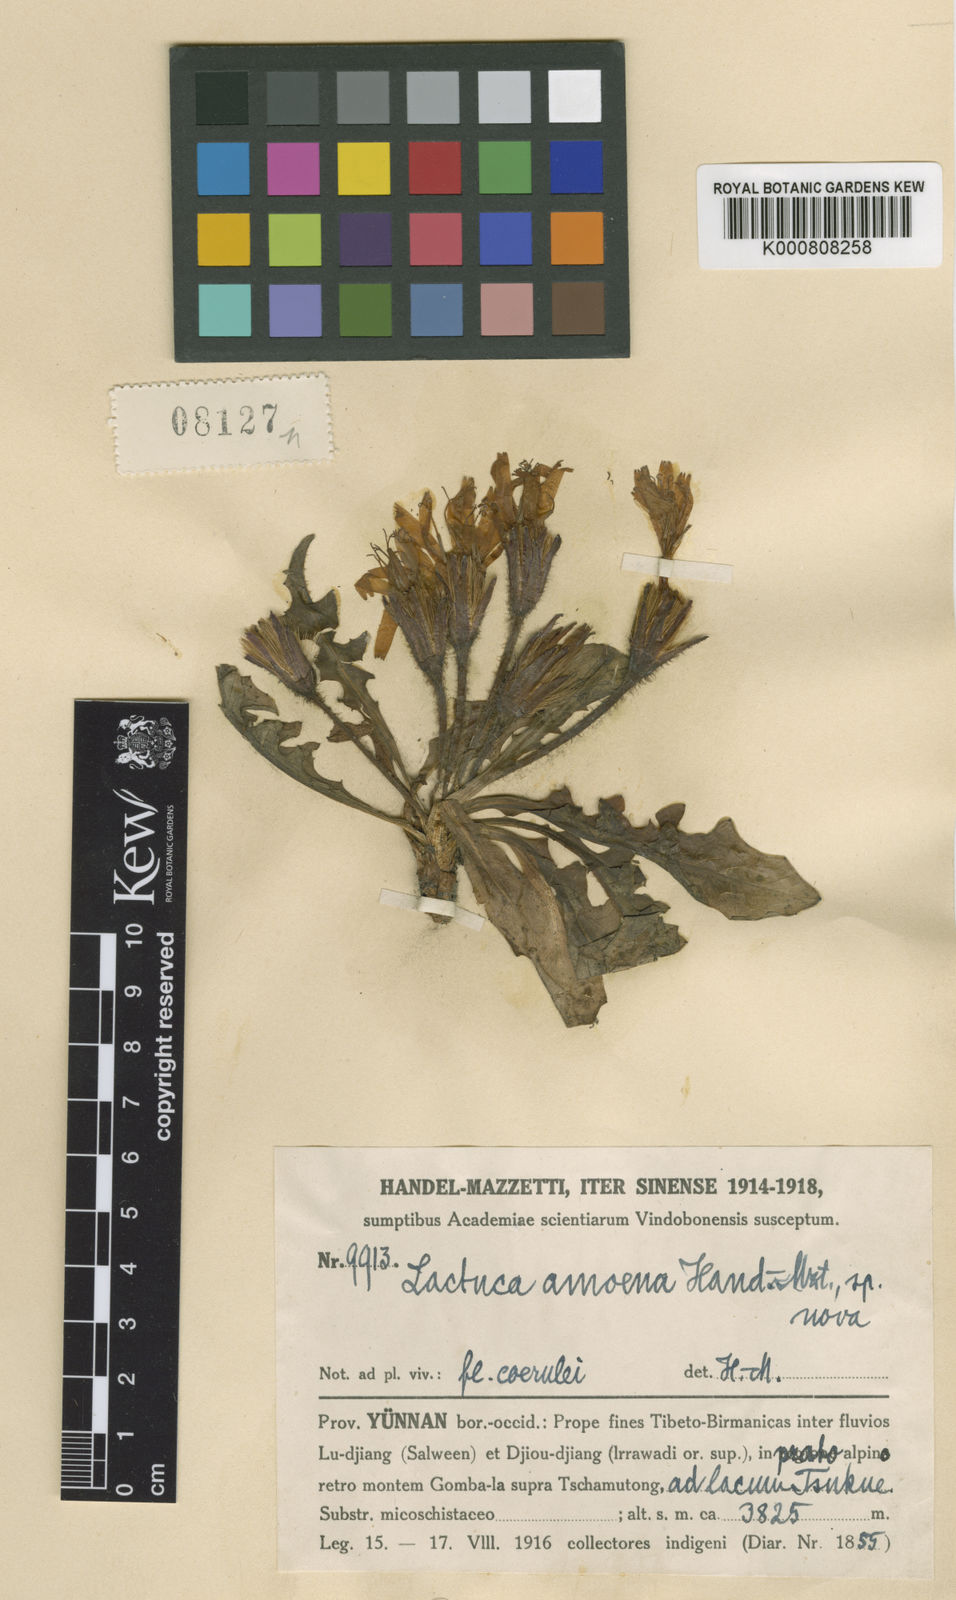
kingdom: Plantae
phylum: Tracheophyta
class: Magnoliopsida
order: Asterales
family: Asteraceae
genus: Lihengia
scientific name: Lihengia amoena
